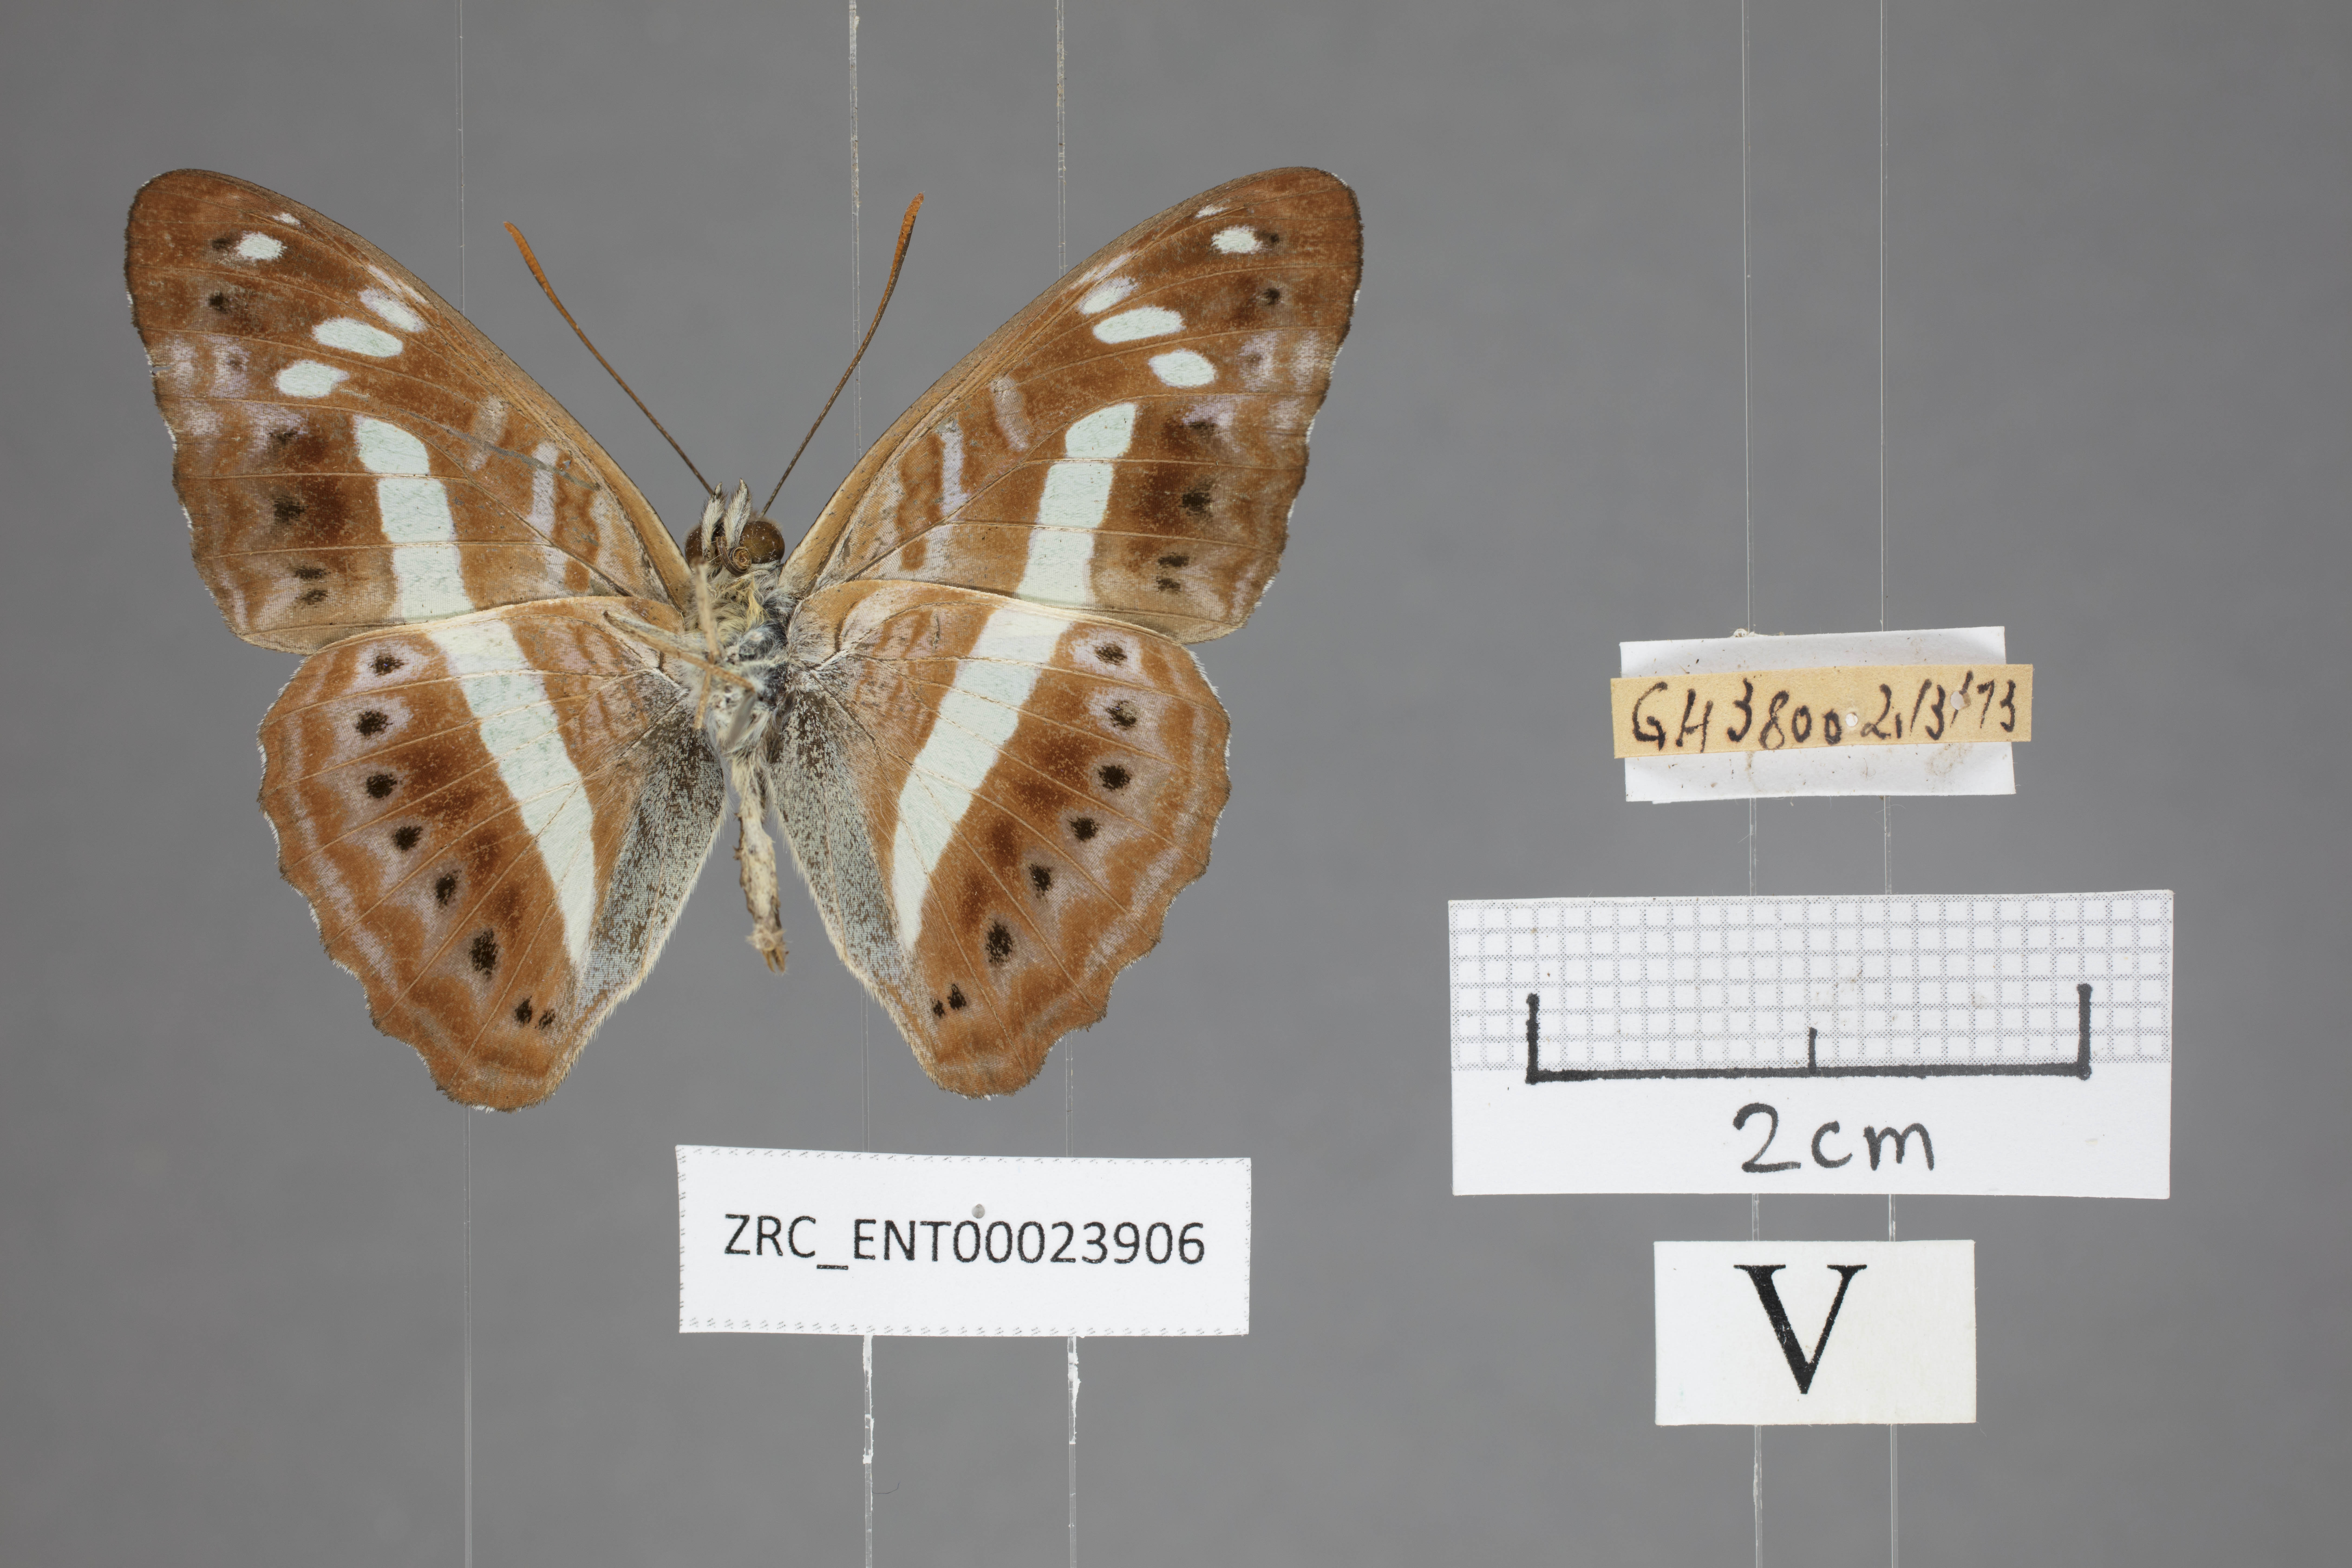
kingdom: Animalia
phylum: Arthropoda
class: Insecta
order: Lepidoptera
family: Nymphalidae
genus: Limenitis
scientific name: Limenitis
